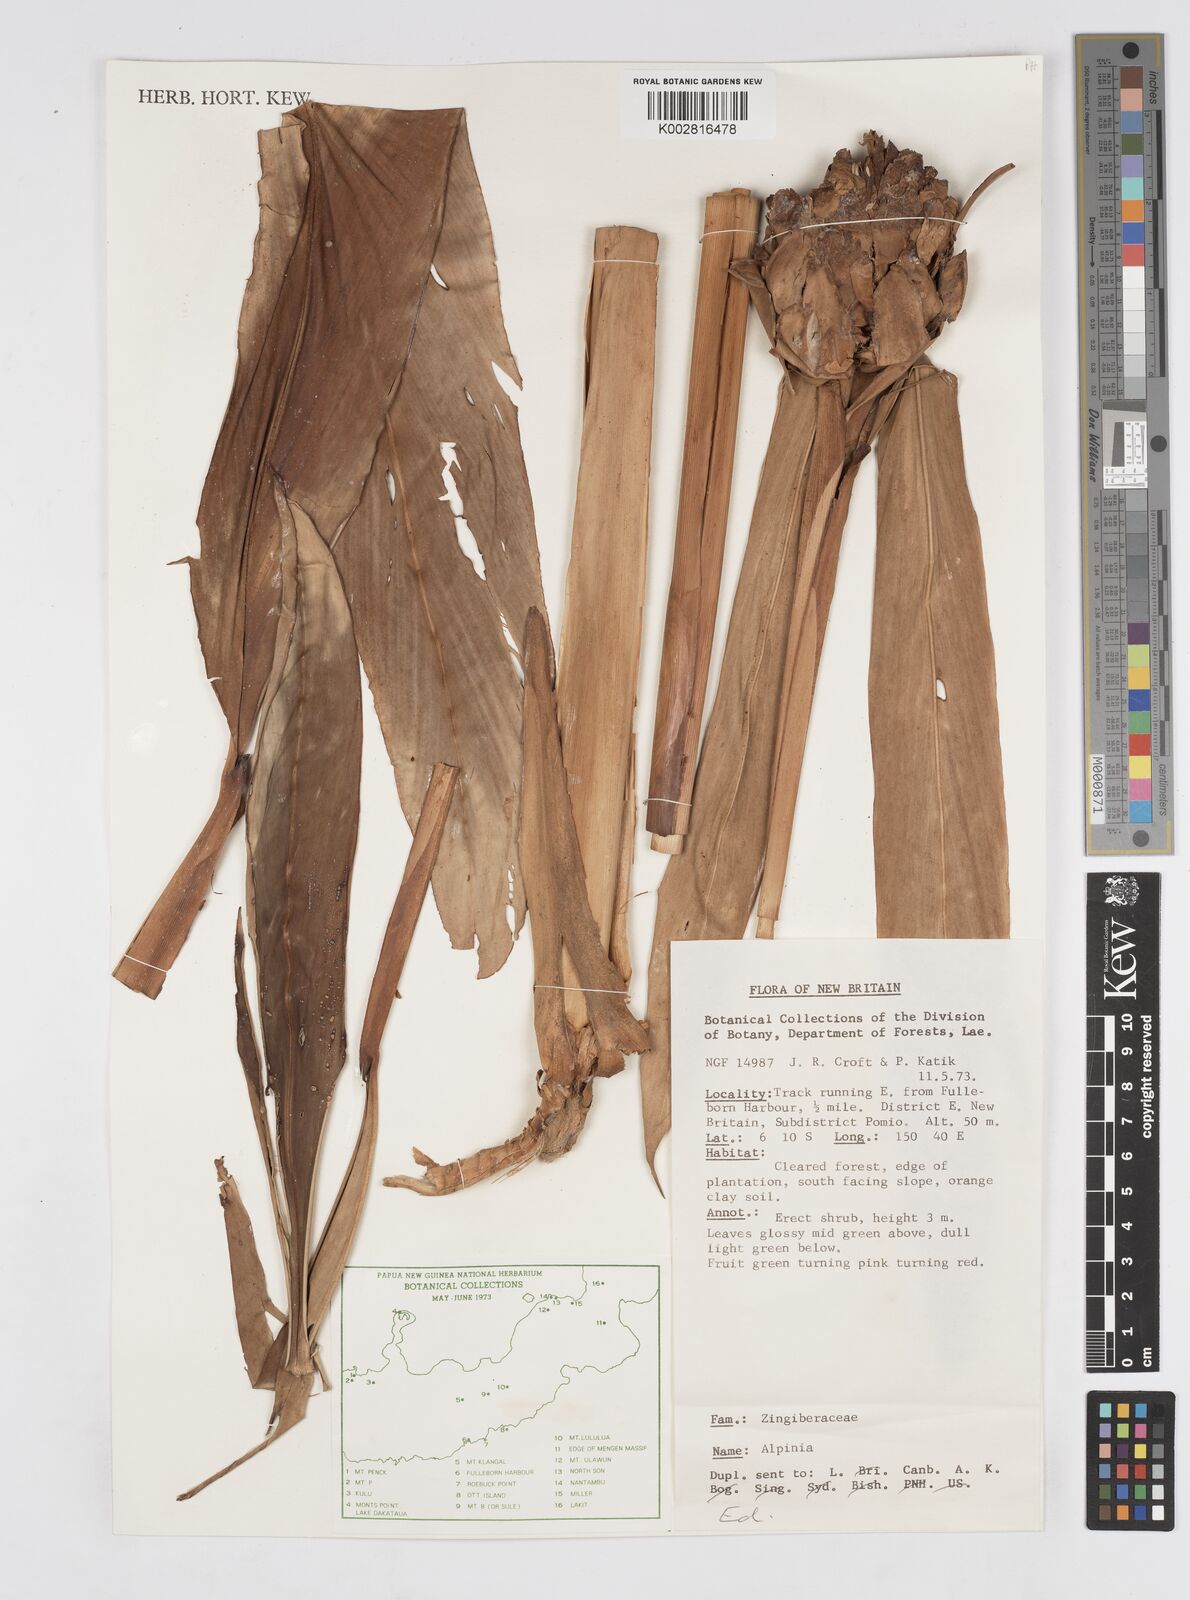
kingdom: Plantae
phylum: Tracheophyta
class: Liliopsida
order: Zingiberales
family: Zingiberaceae
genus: Alpinia
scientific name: Alpinia
